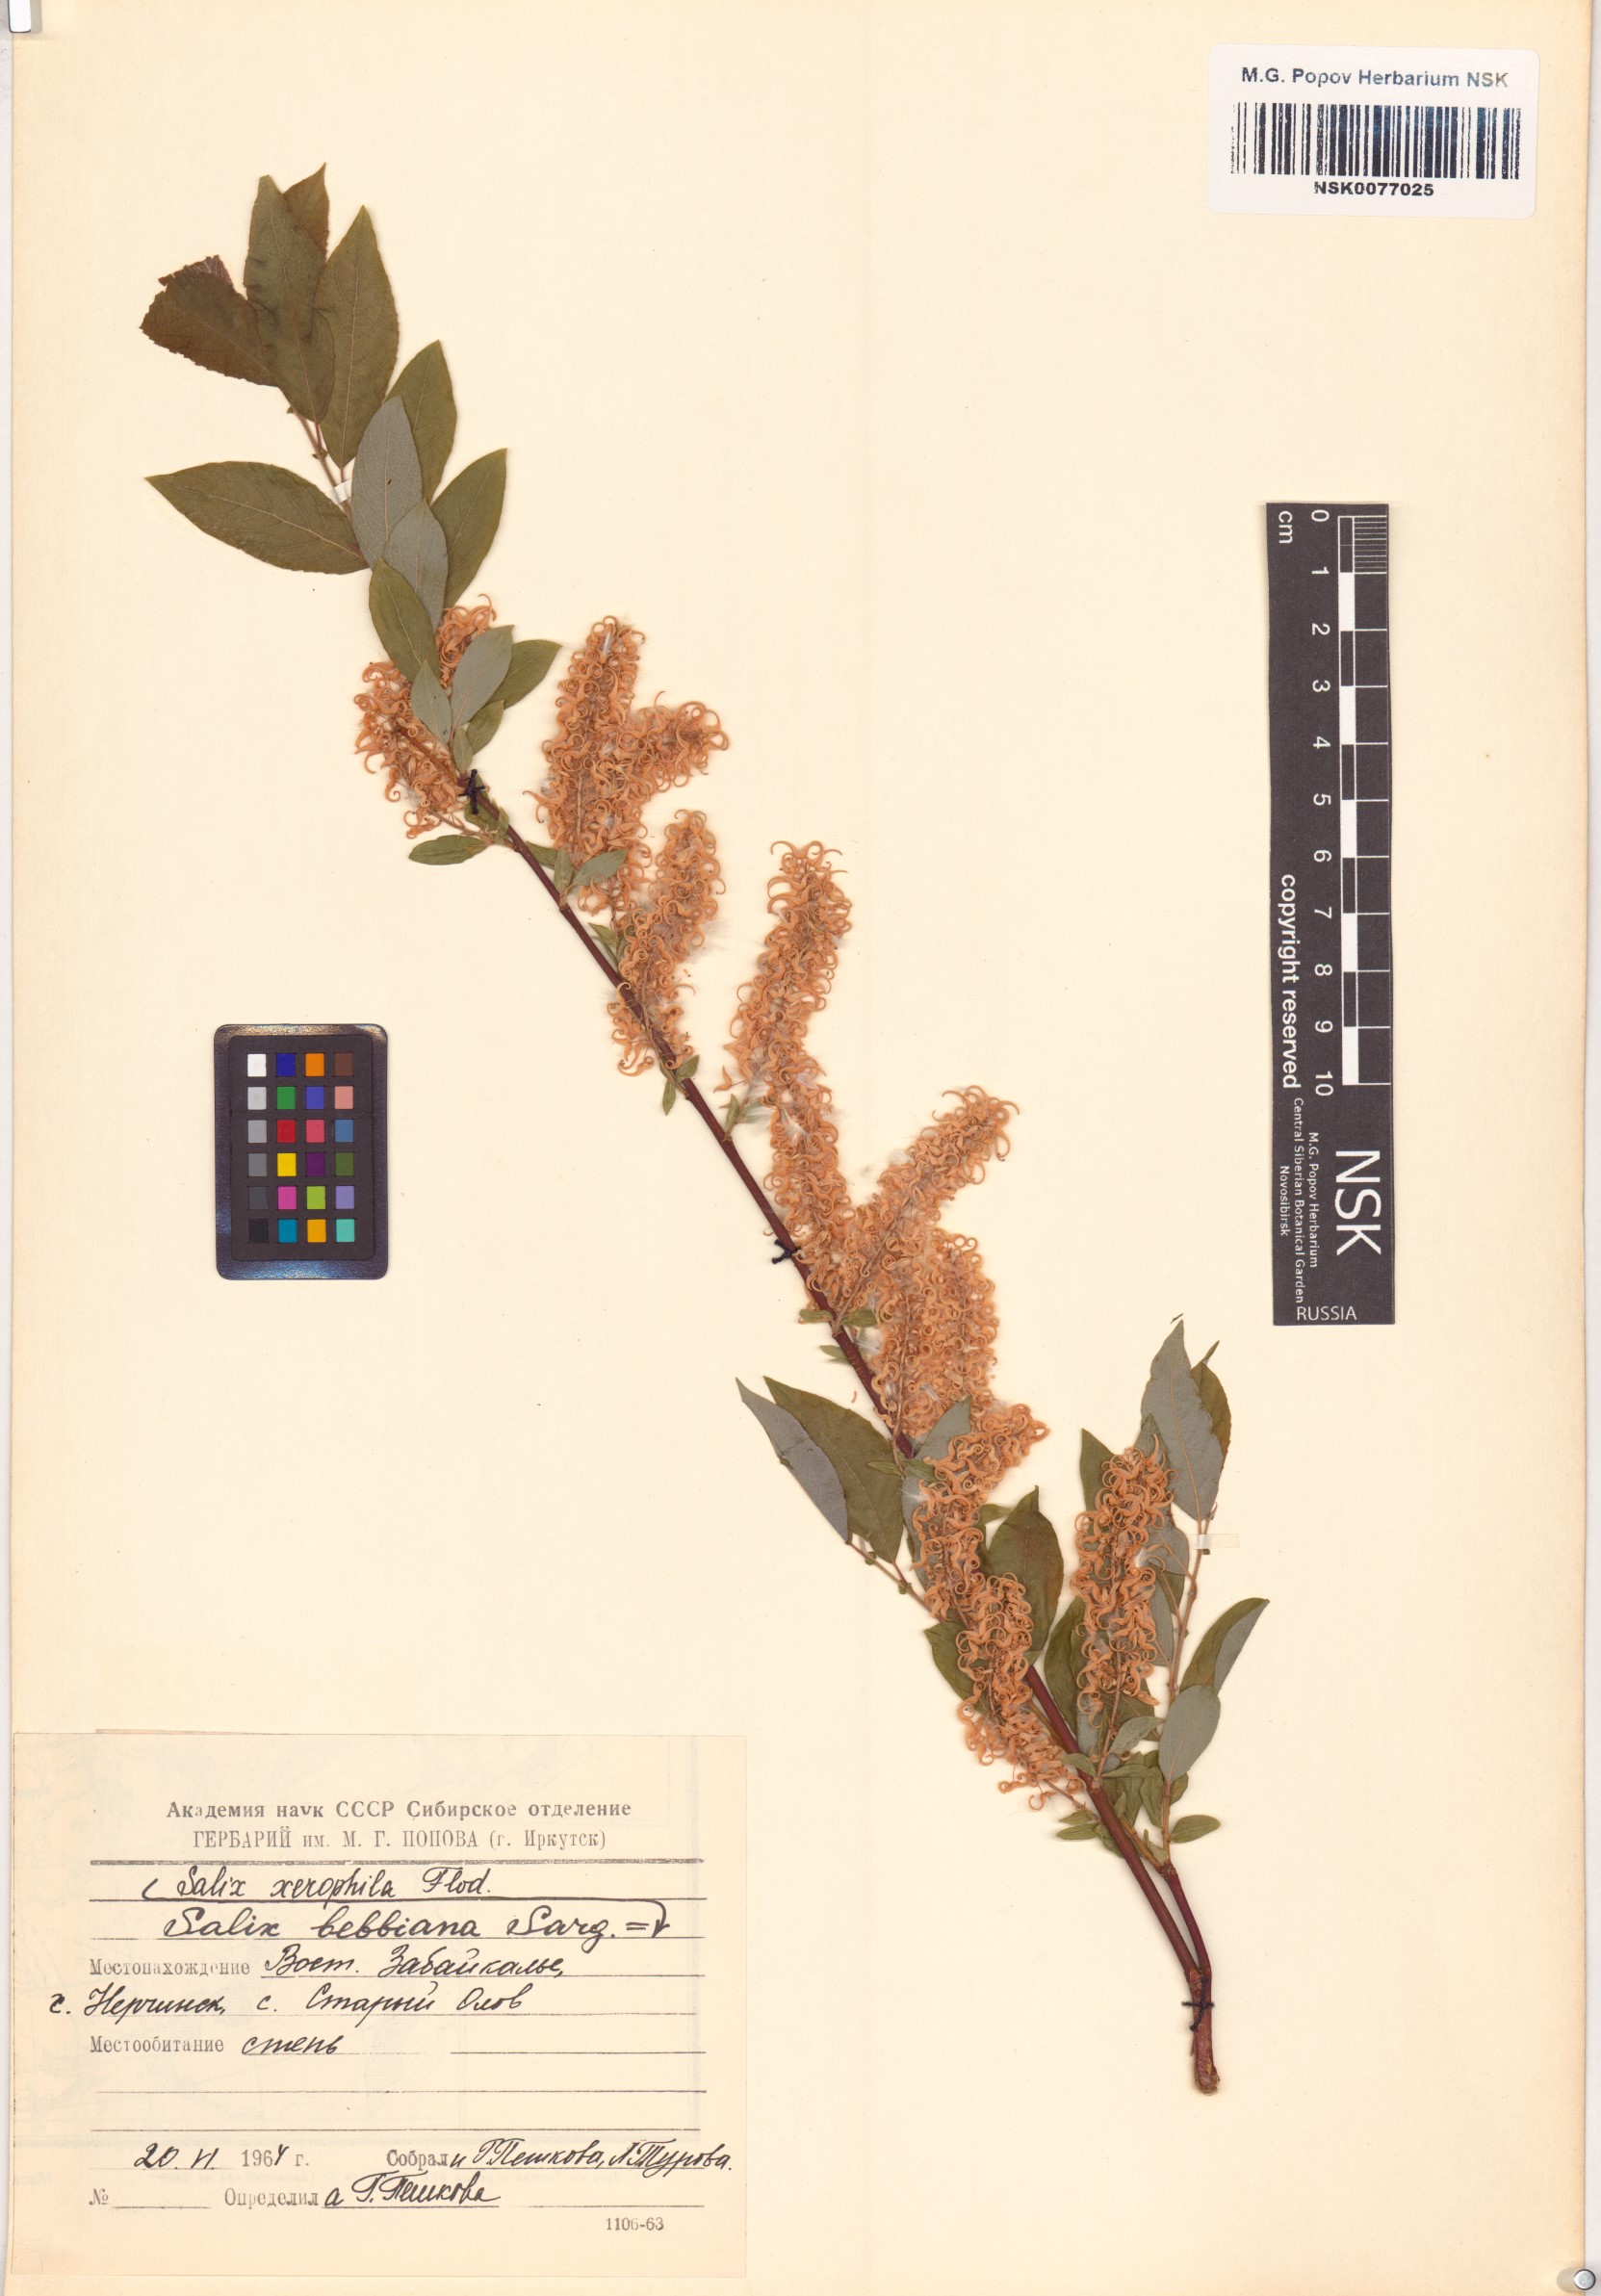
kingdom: Plantae
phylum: Tracheophyta
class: Magnoliopsida
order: Malpighiales
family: Salicaceae
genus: Salix
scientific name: Salix bebbiana
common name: Bebb's willow
